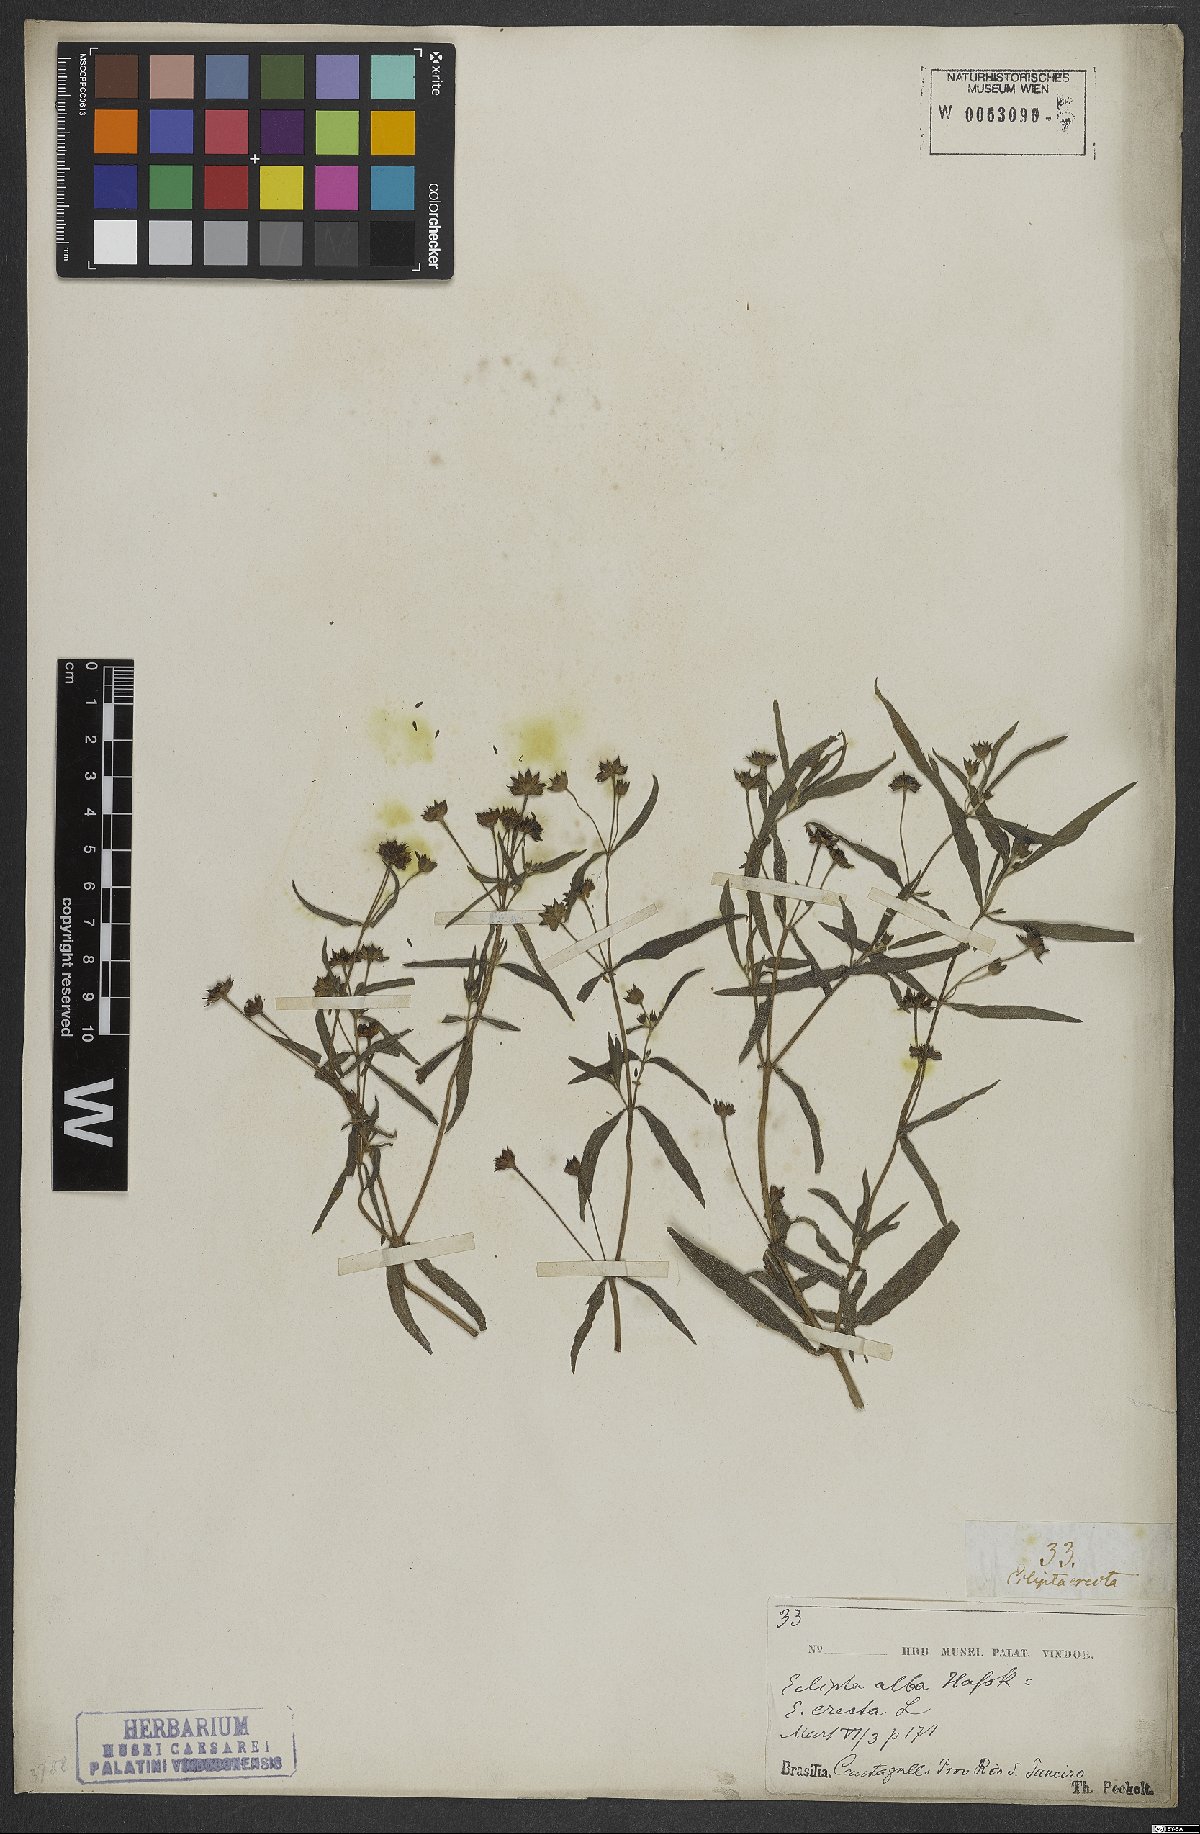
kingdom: Plantae
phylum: Tracheophyta
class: Magnoliopsida
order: Asterales
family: Asteraceae
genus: Eclipta
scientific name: Eclipta alba
